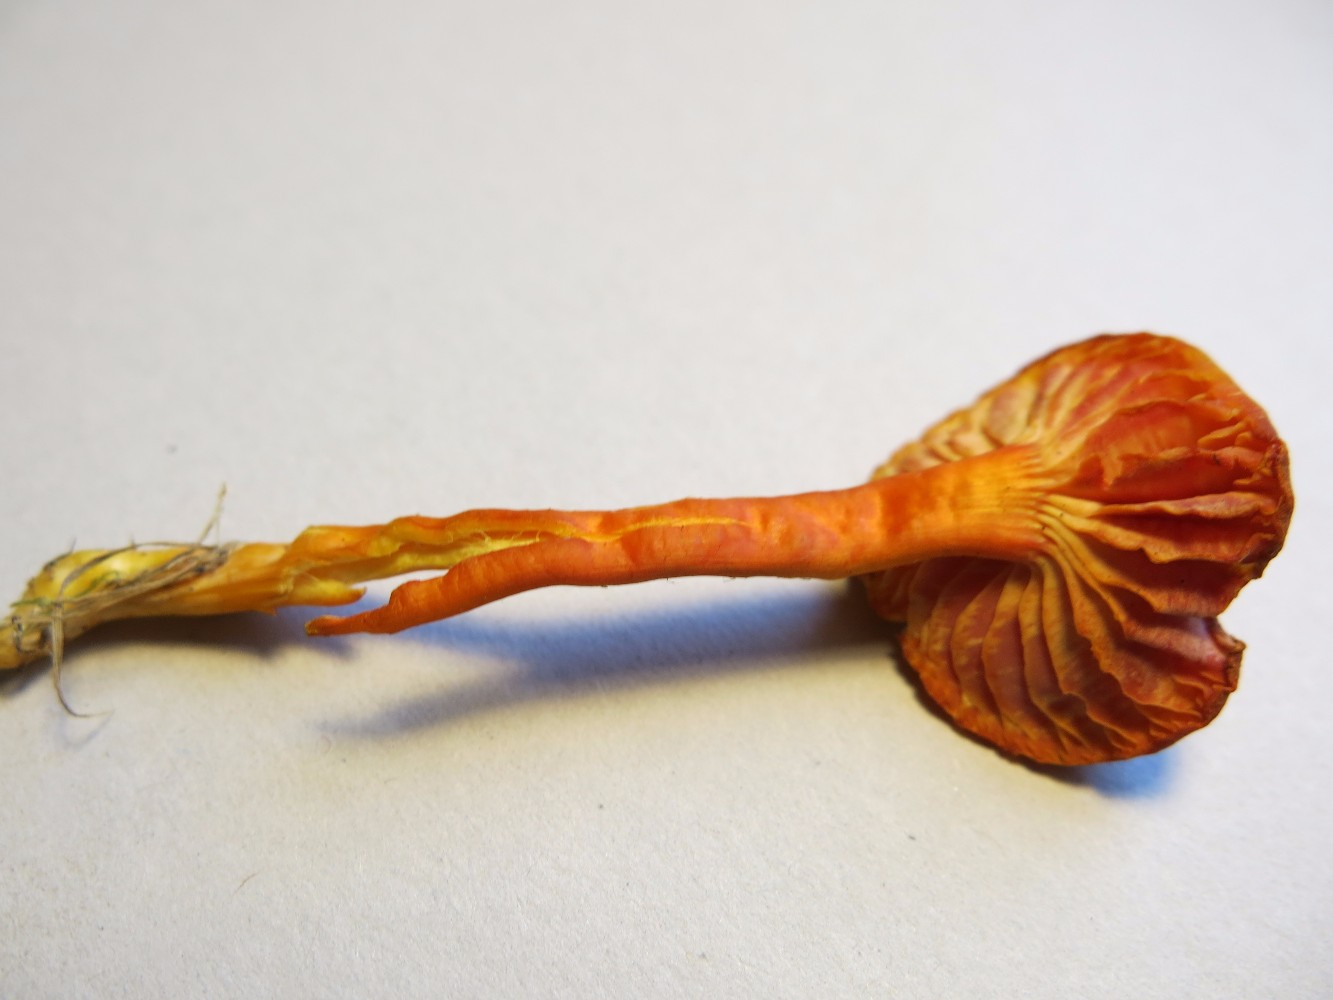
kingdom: Fungi
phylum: Basidiomycota
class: Agaricomycetes
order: Agaricales
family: Hygrophoraceae
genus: Hygrocybe
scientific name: Hygrocybe miniata
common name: mønje-vokshat
